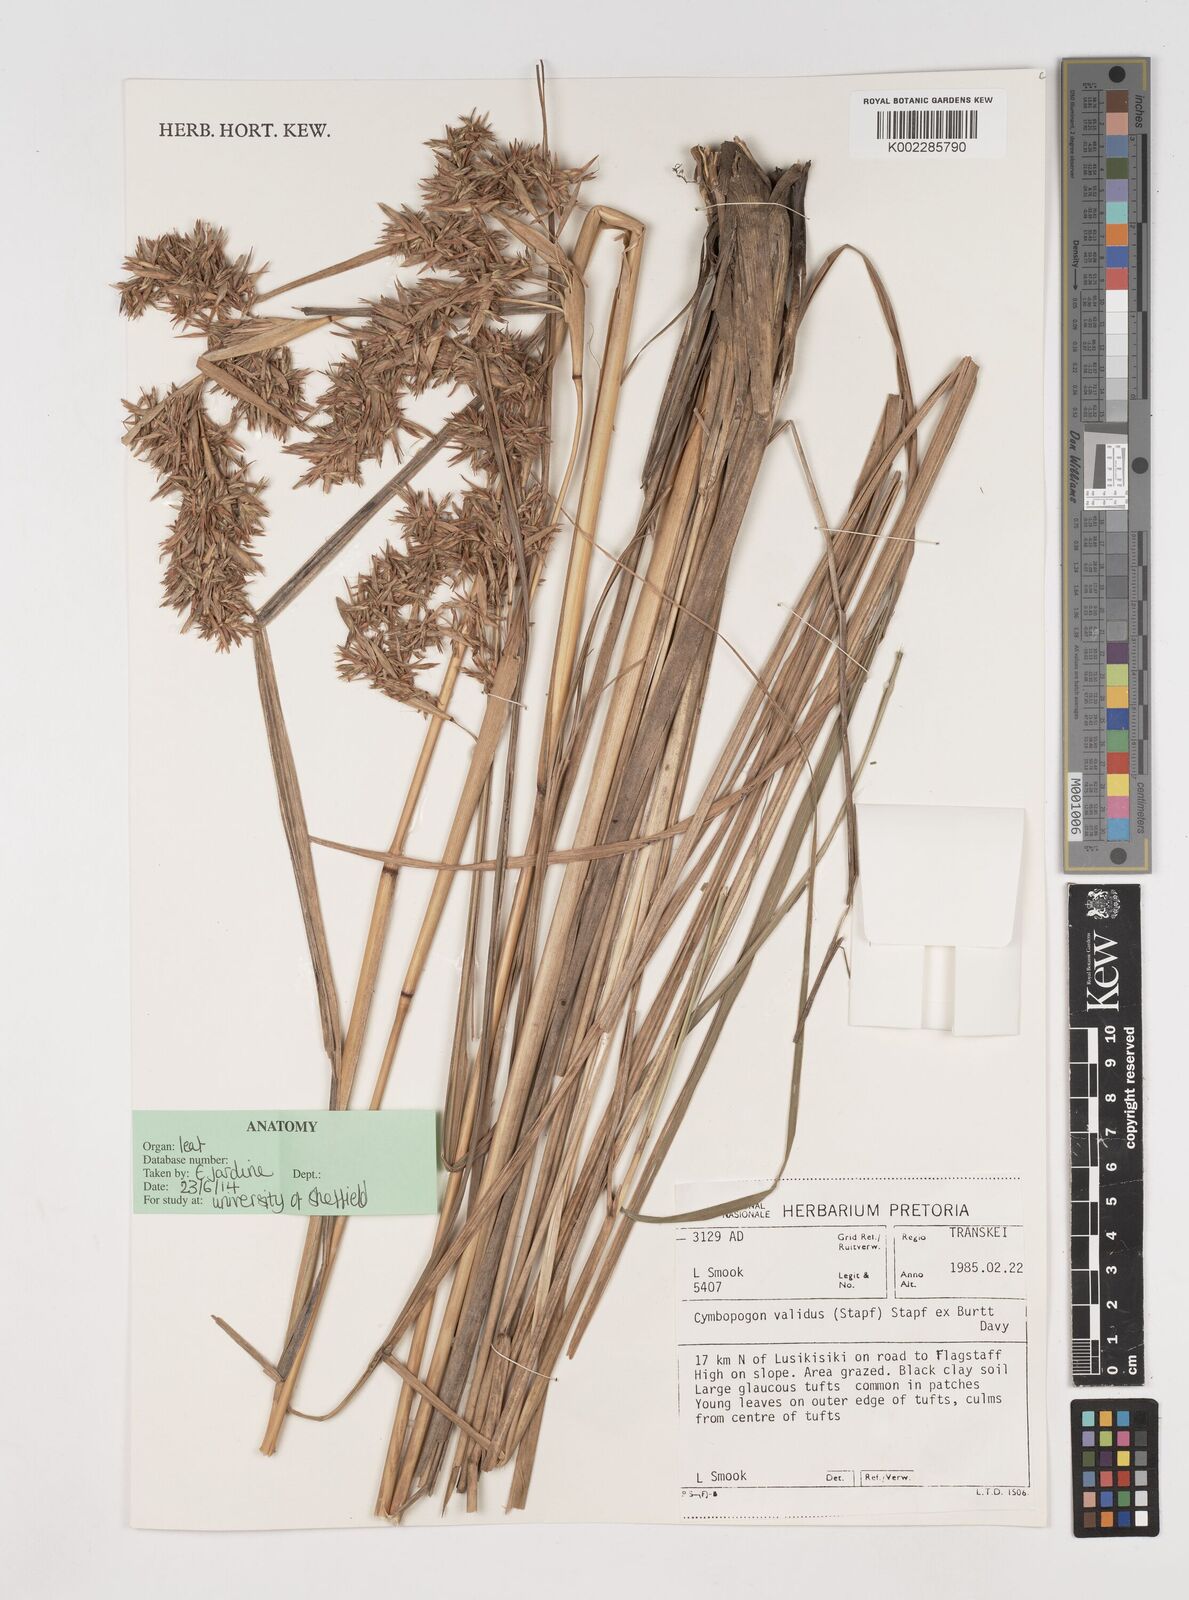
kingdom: Plantae
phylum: Tracheophyta
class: Liliopsida
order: Poales
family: Poaceae
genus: Cymbopogon
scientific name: Cymbopogon nardus
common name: Giant turpentine grass
